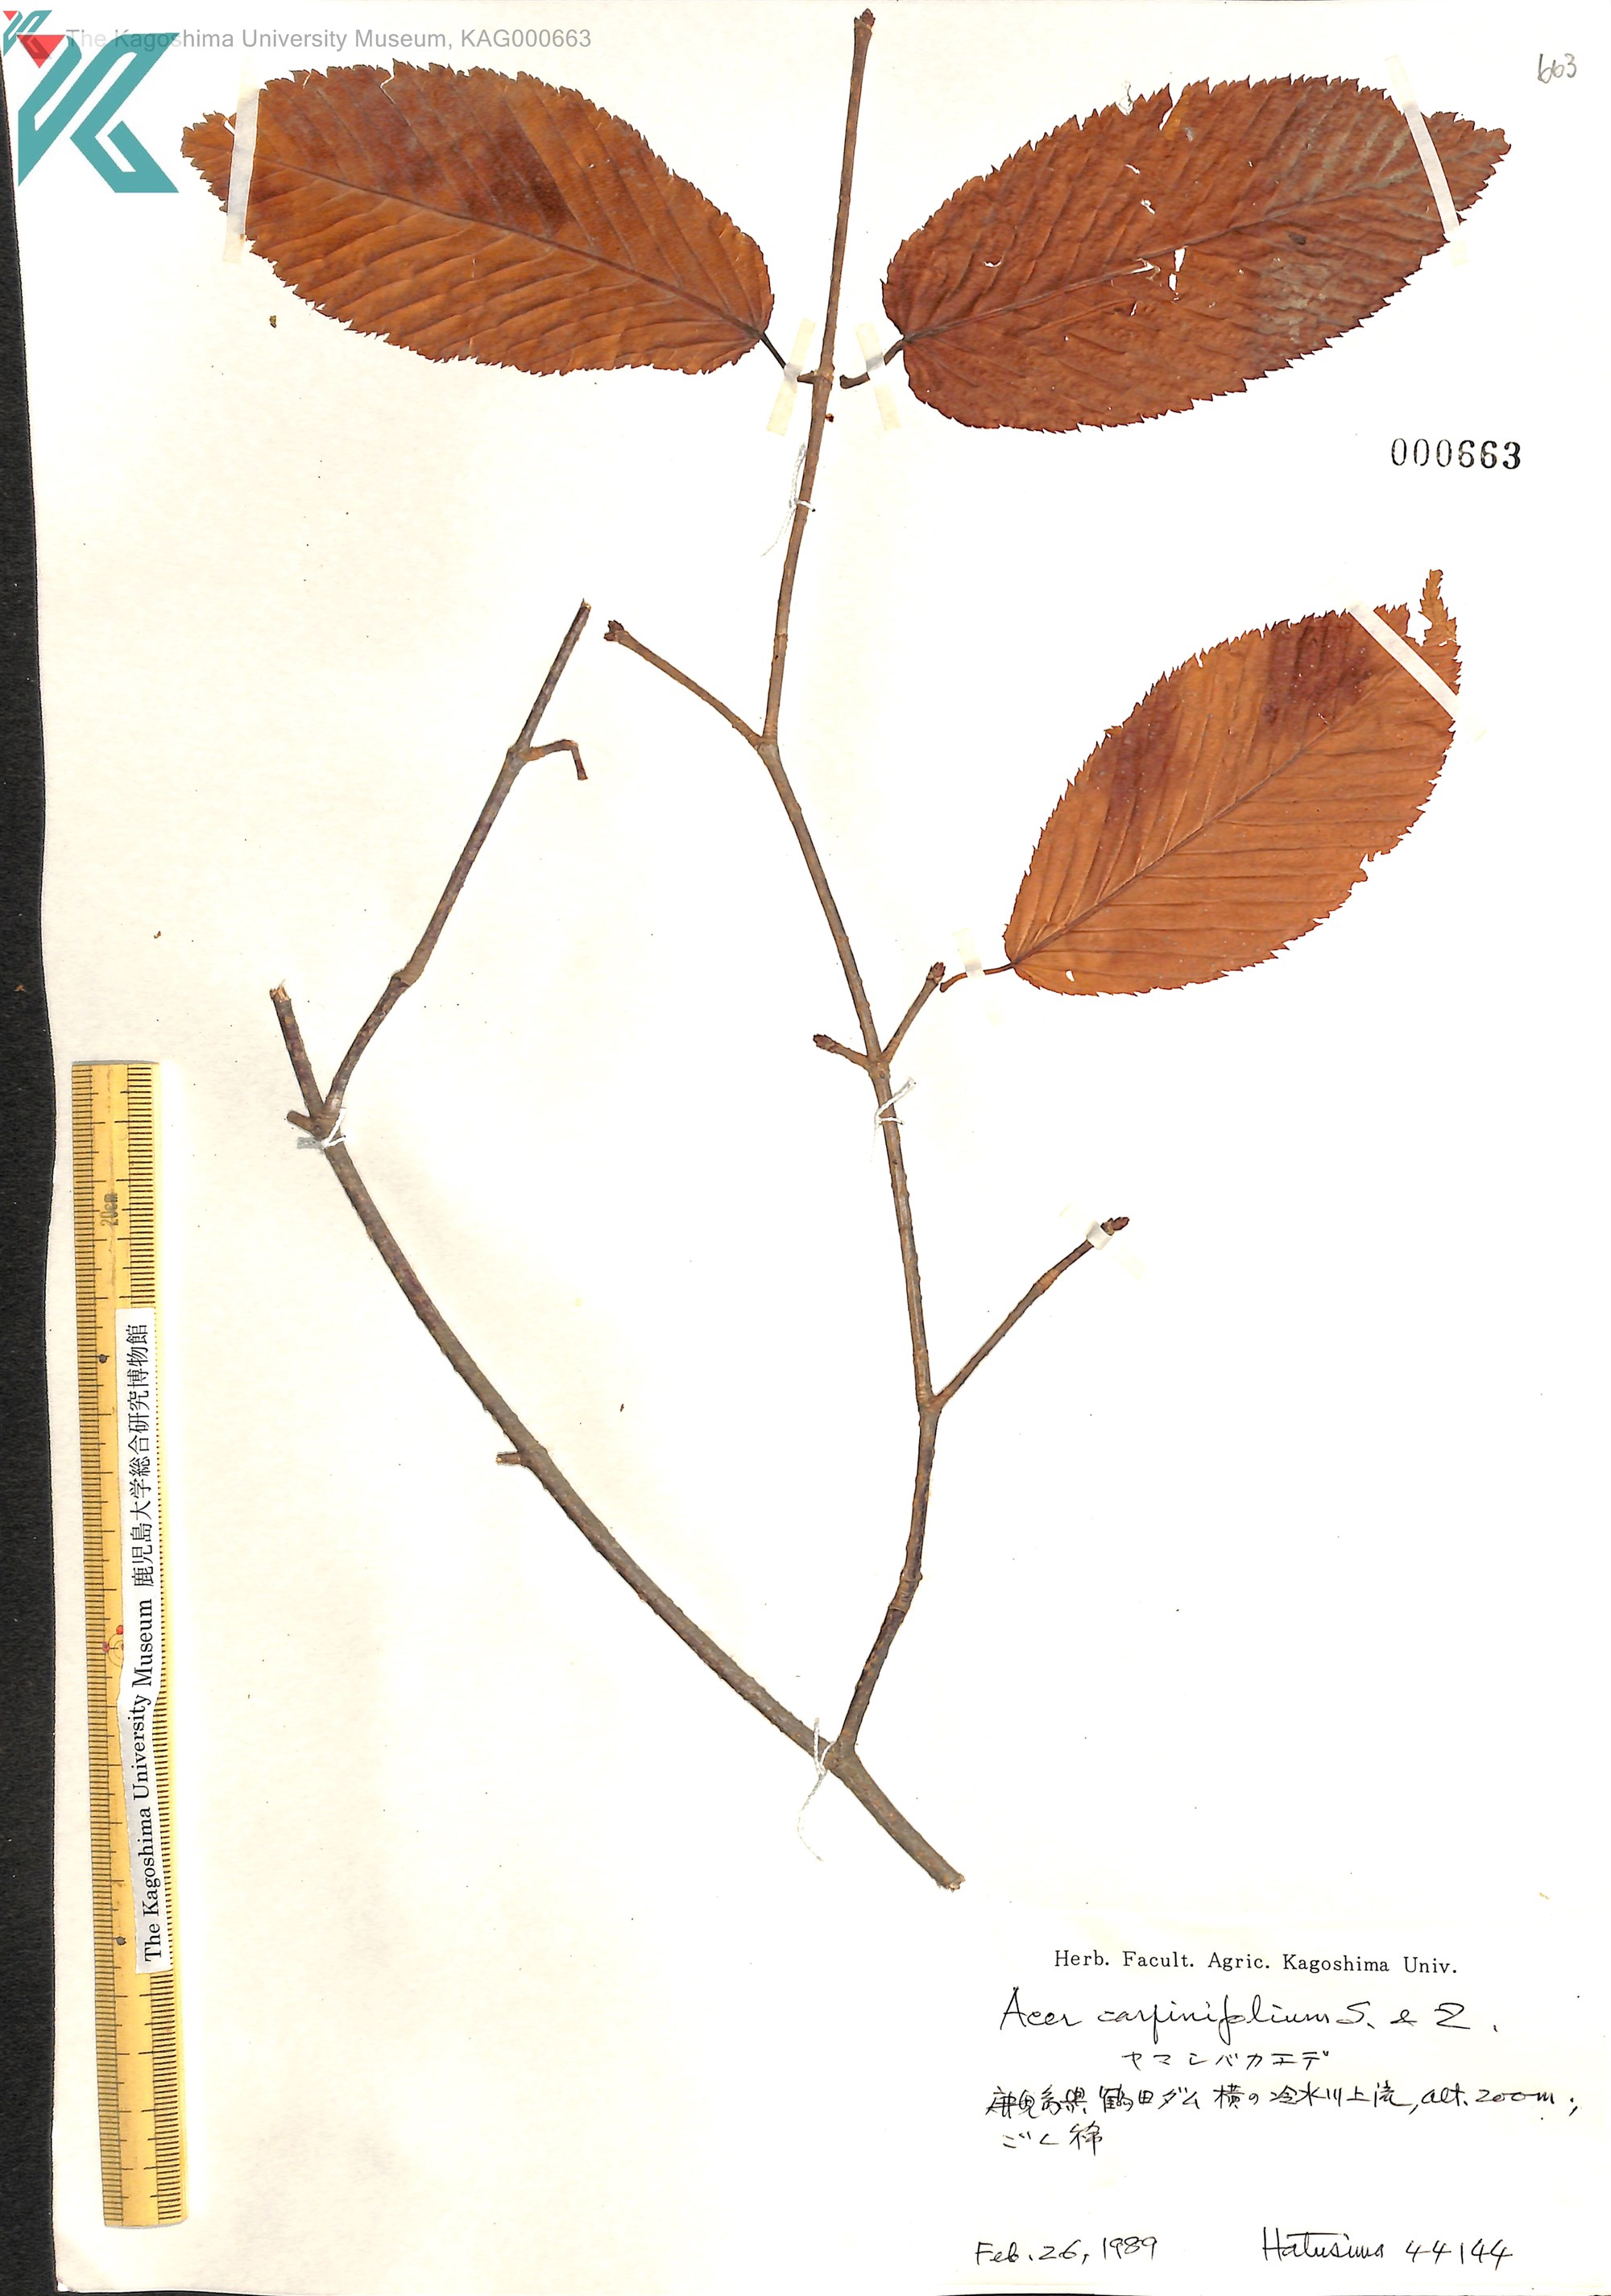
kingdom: Plantae
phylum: Tracheophyta
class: Magnoliopsida
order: Sapindales
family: Sapindaceae
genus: Acer
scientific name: Acer carpinifolium
